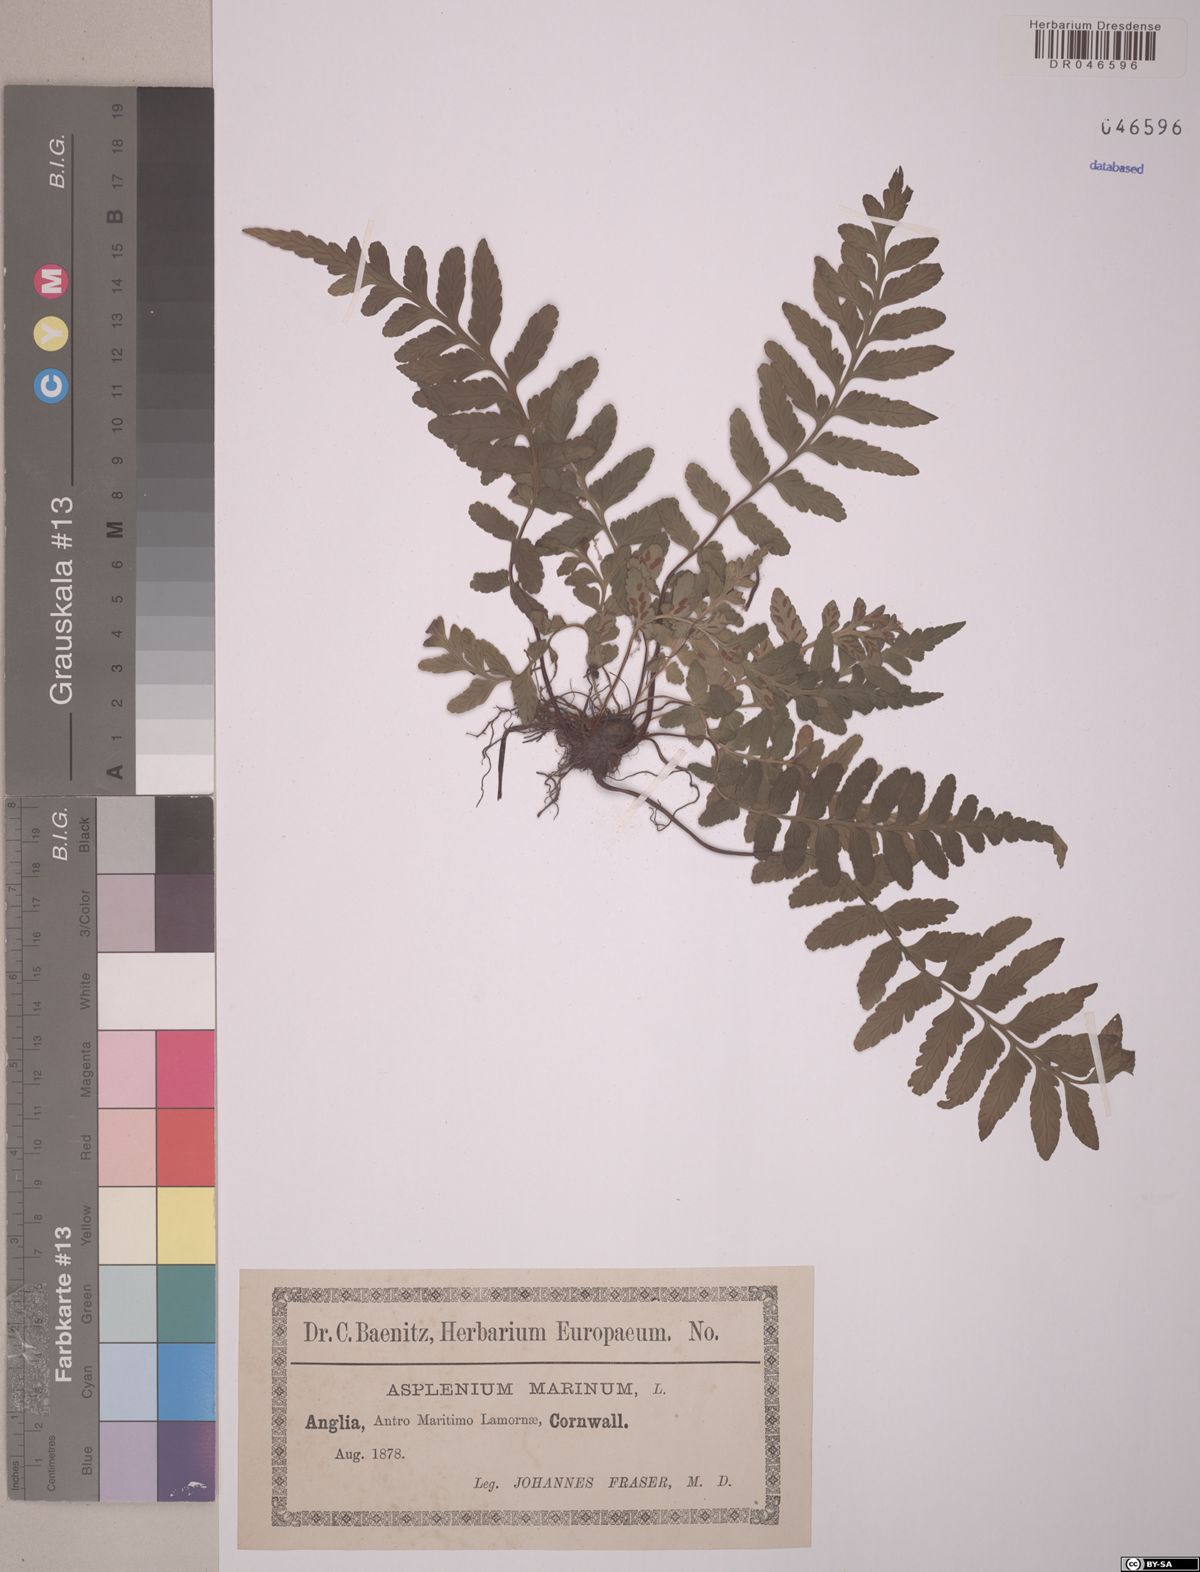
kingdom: Plantae
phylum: Tracheophyta
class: Polypodiopsida
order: Polypodiales
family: Aspleniaceae
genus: Asplenium
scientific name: Asplenium marinum
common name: Sea spleenwort
